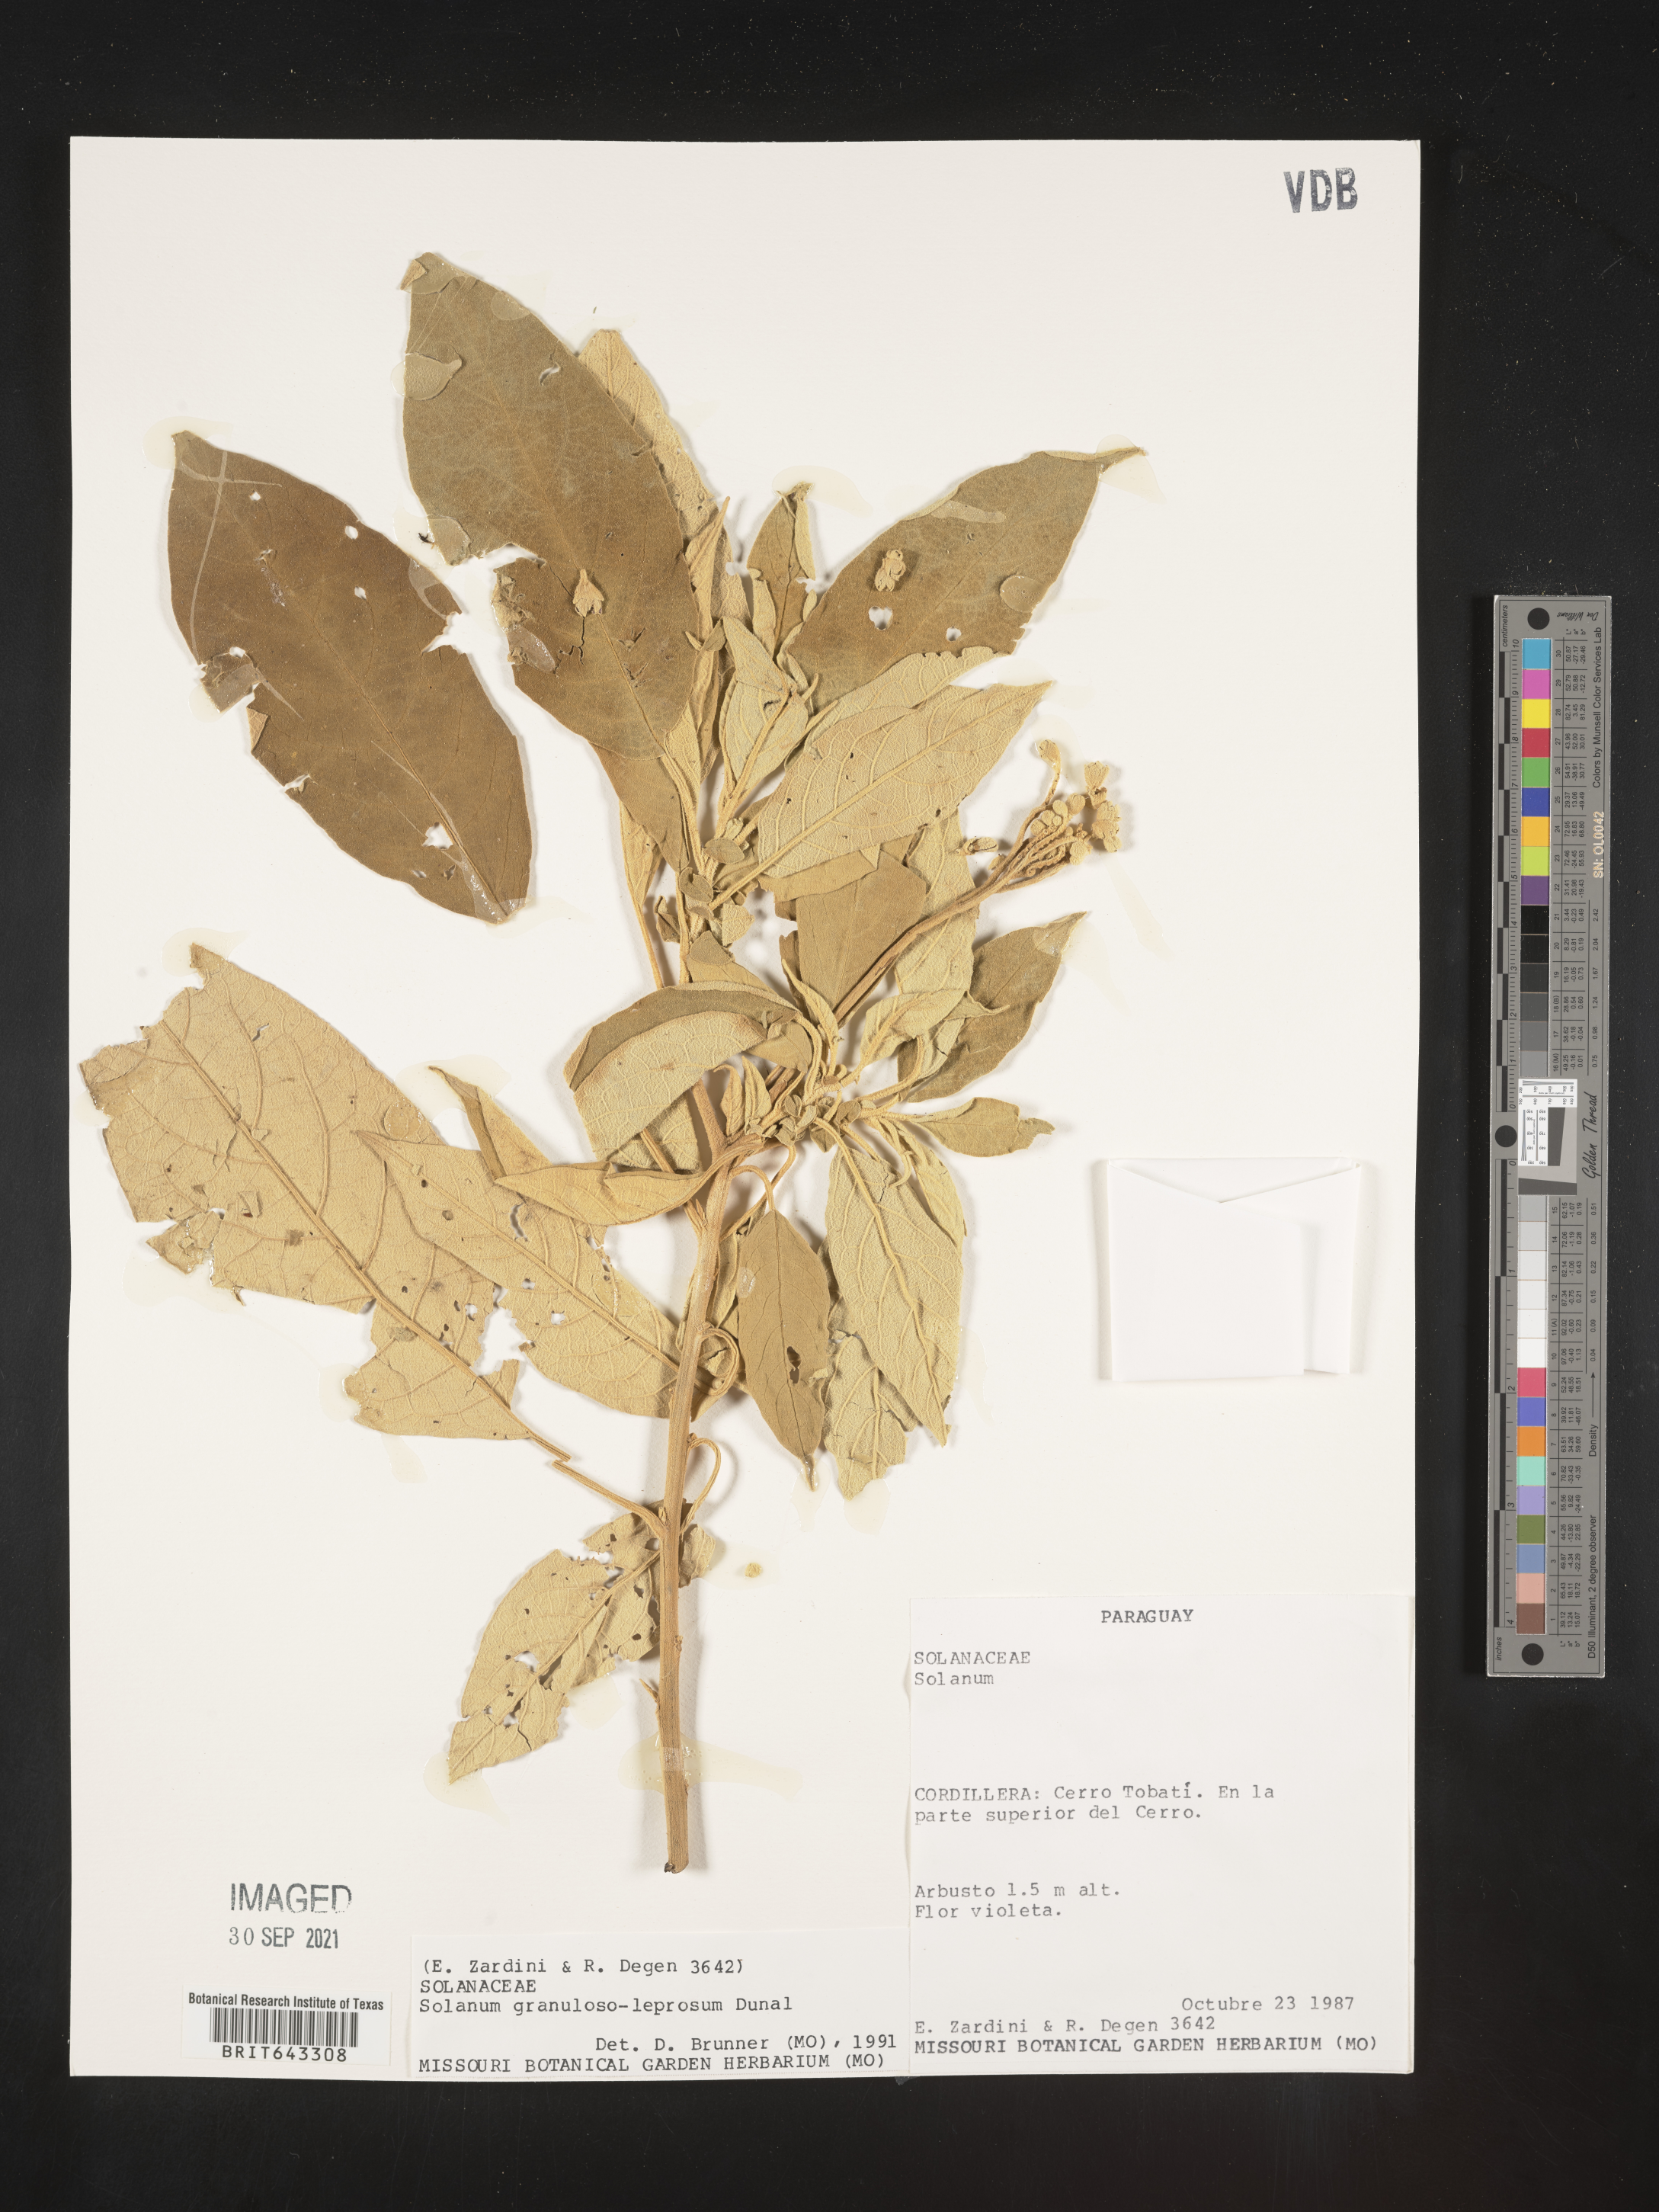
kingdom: Plantae
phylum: Tracheophyta
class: Magnoliopsida
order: Solanales
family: Solanaceae
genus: Solanum
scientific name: Solanum
